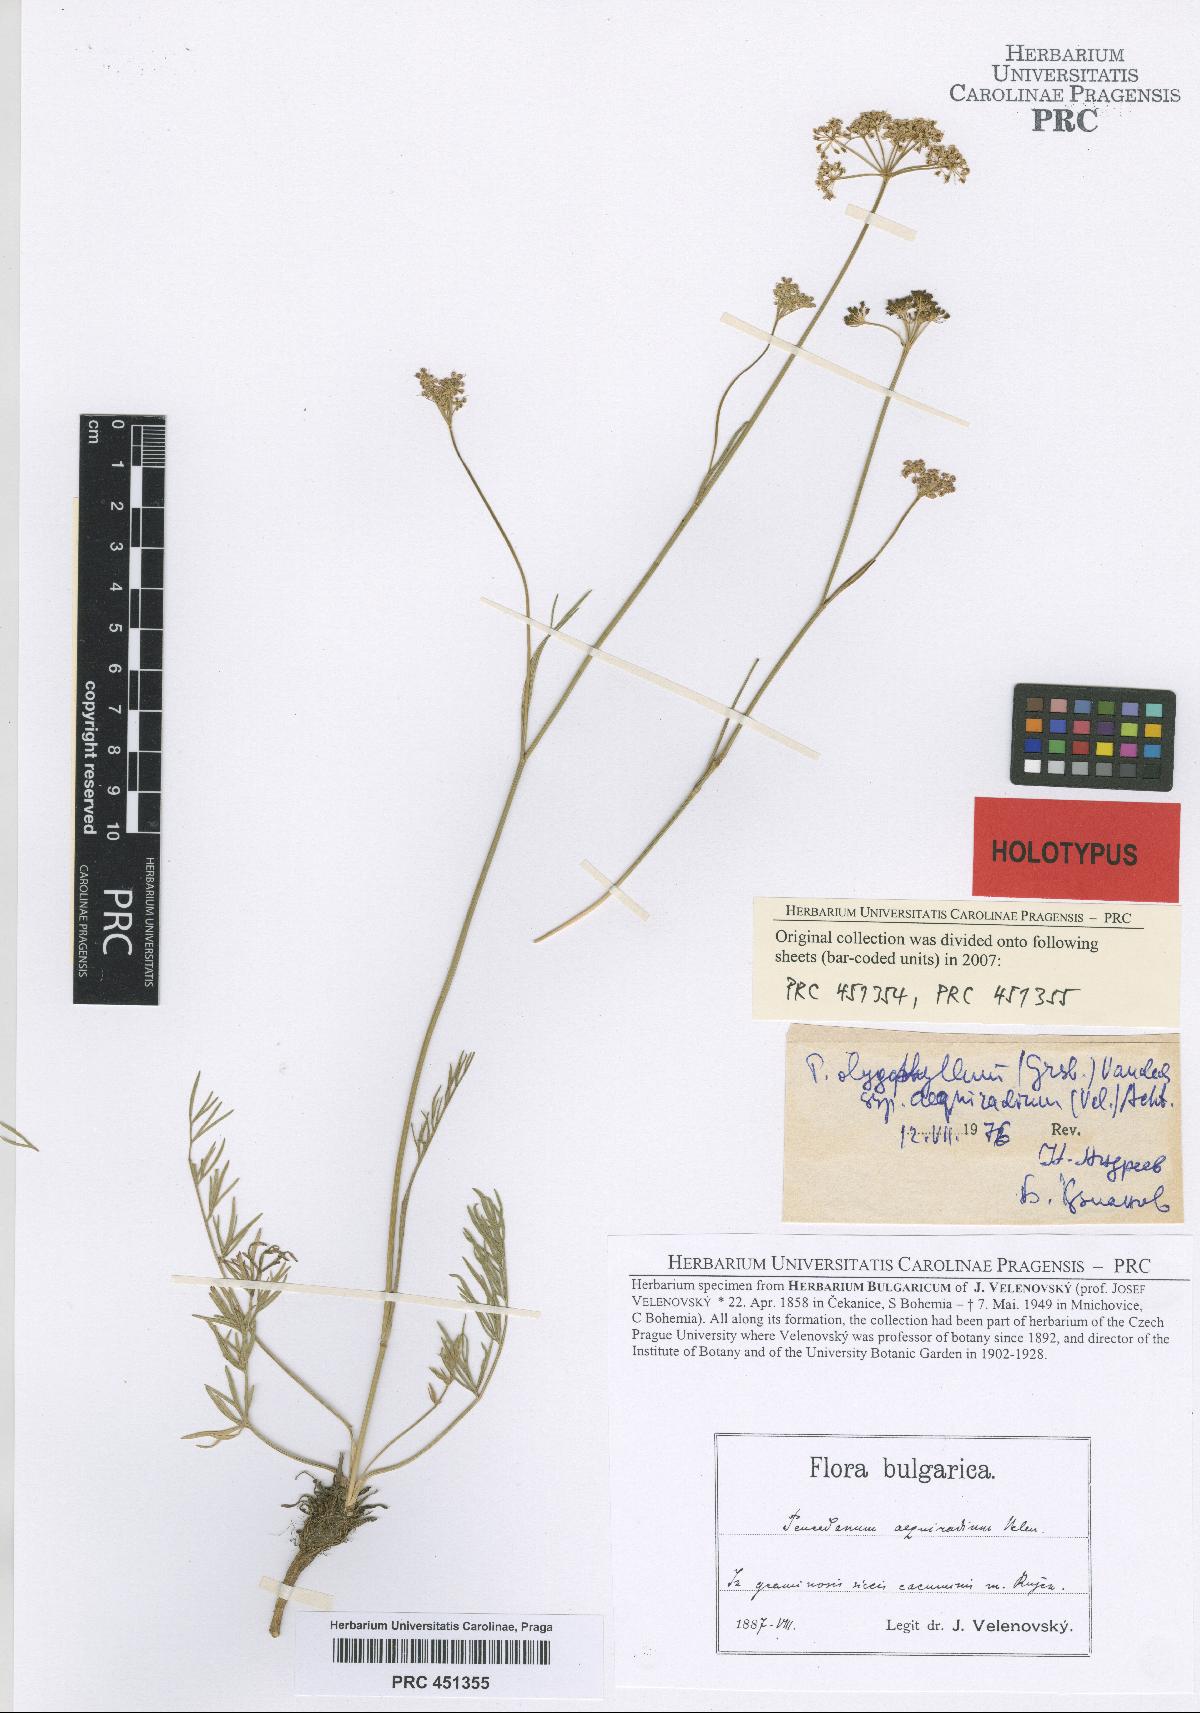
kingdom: Plantae
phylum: Tracheophyta
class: Magnoliopsida
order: Apiales
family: Apiaceae
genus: Dichoropetalum
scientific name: Dichoropetalum oligophyllum
